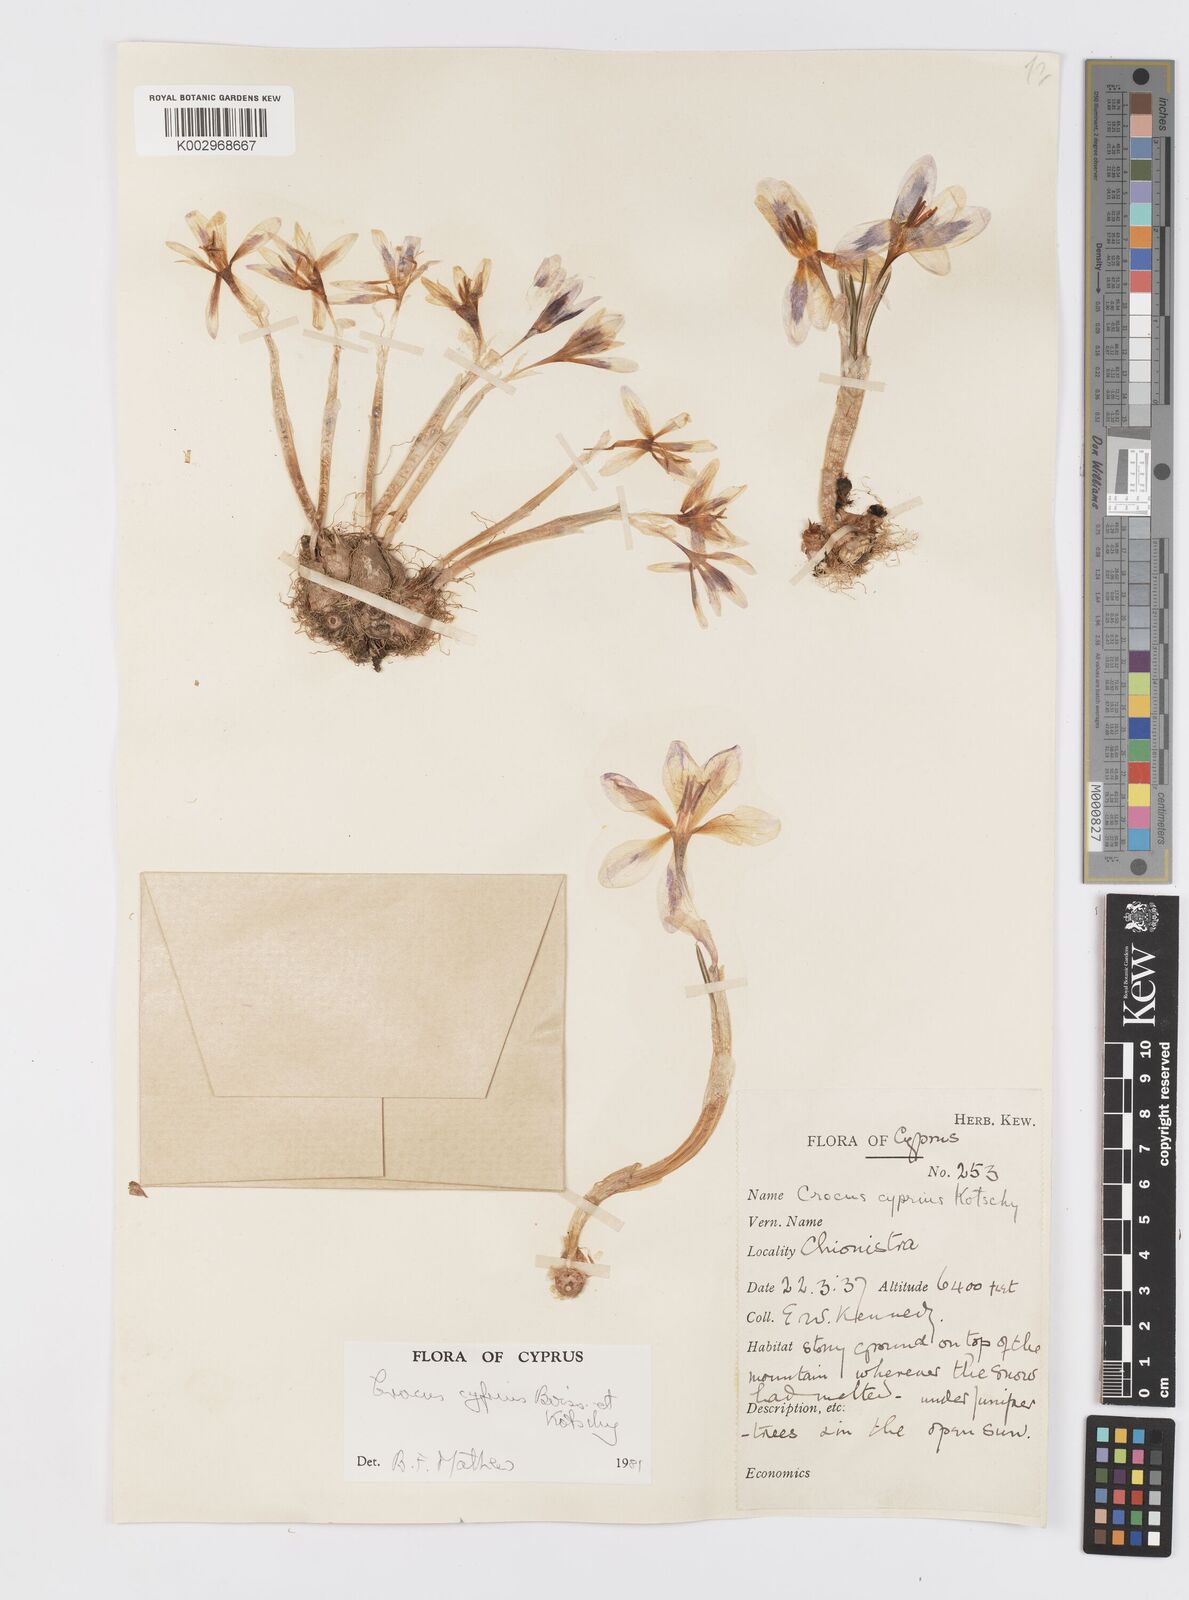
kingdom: Plantae
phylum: Tracheophyta
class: Liliopsida
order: Asparagales
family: Iridaceae
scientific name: Iridaceae
